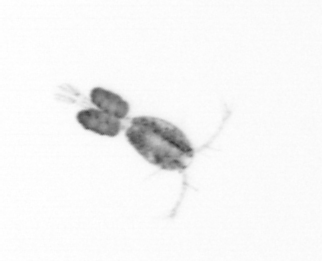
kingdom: Animalia
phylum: Arthropoda
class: Copepoda
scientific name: Copepoda
